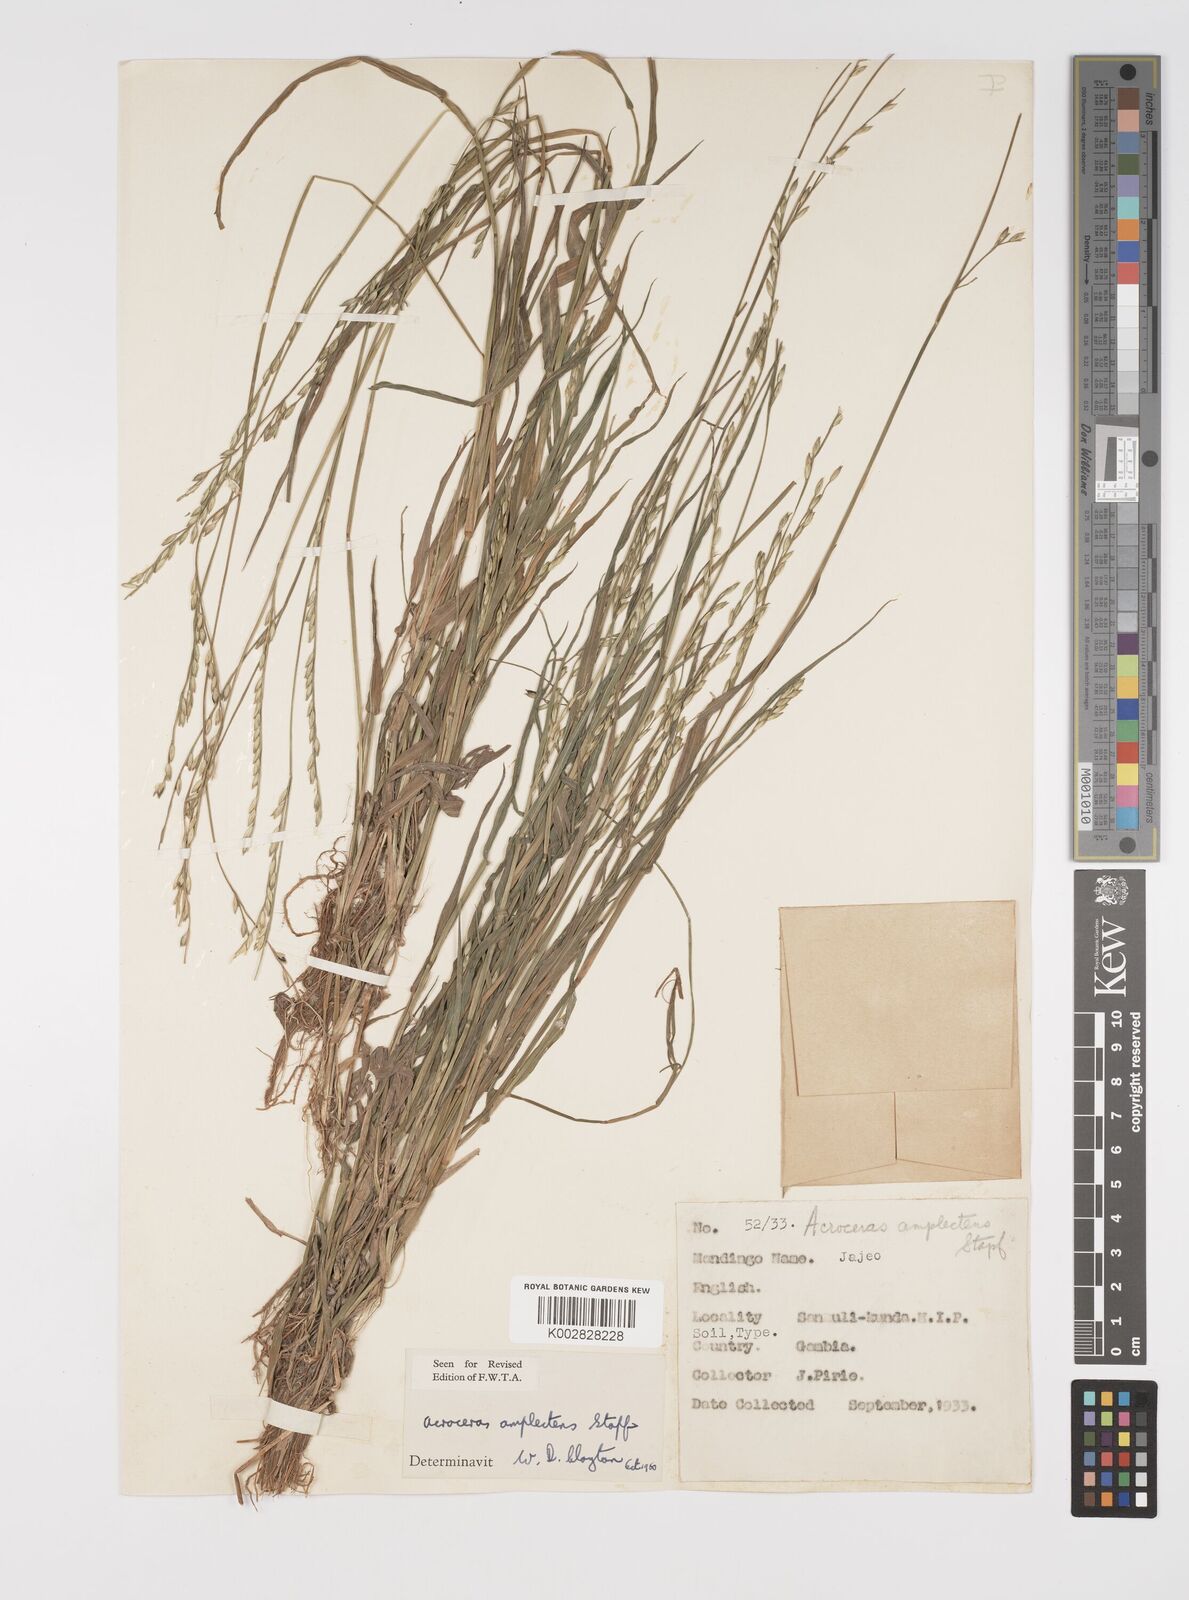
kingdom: Plantae
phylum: Tracheophyta
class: Liliopsida
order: Poales
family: Poaceae
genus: Acroceras
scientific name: Acroceras amplectens
